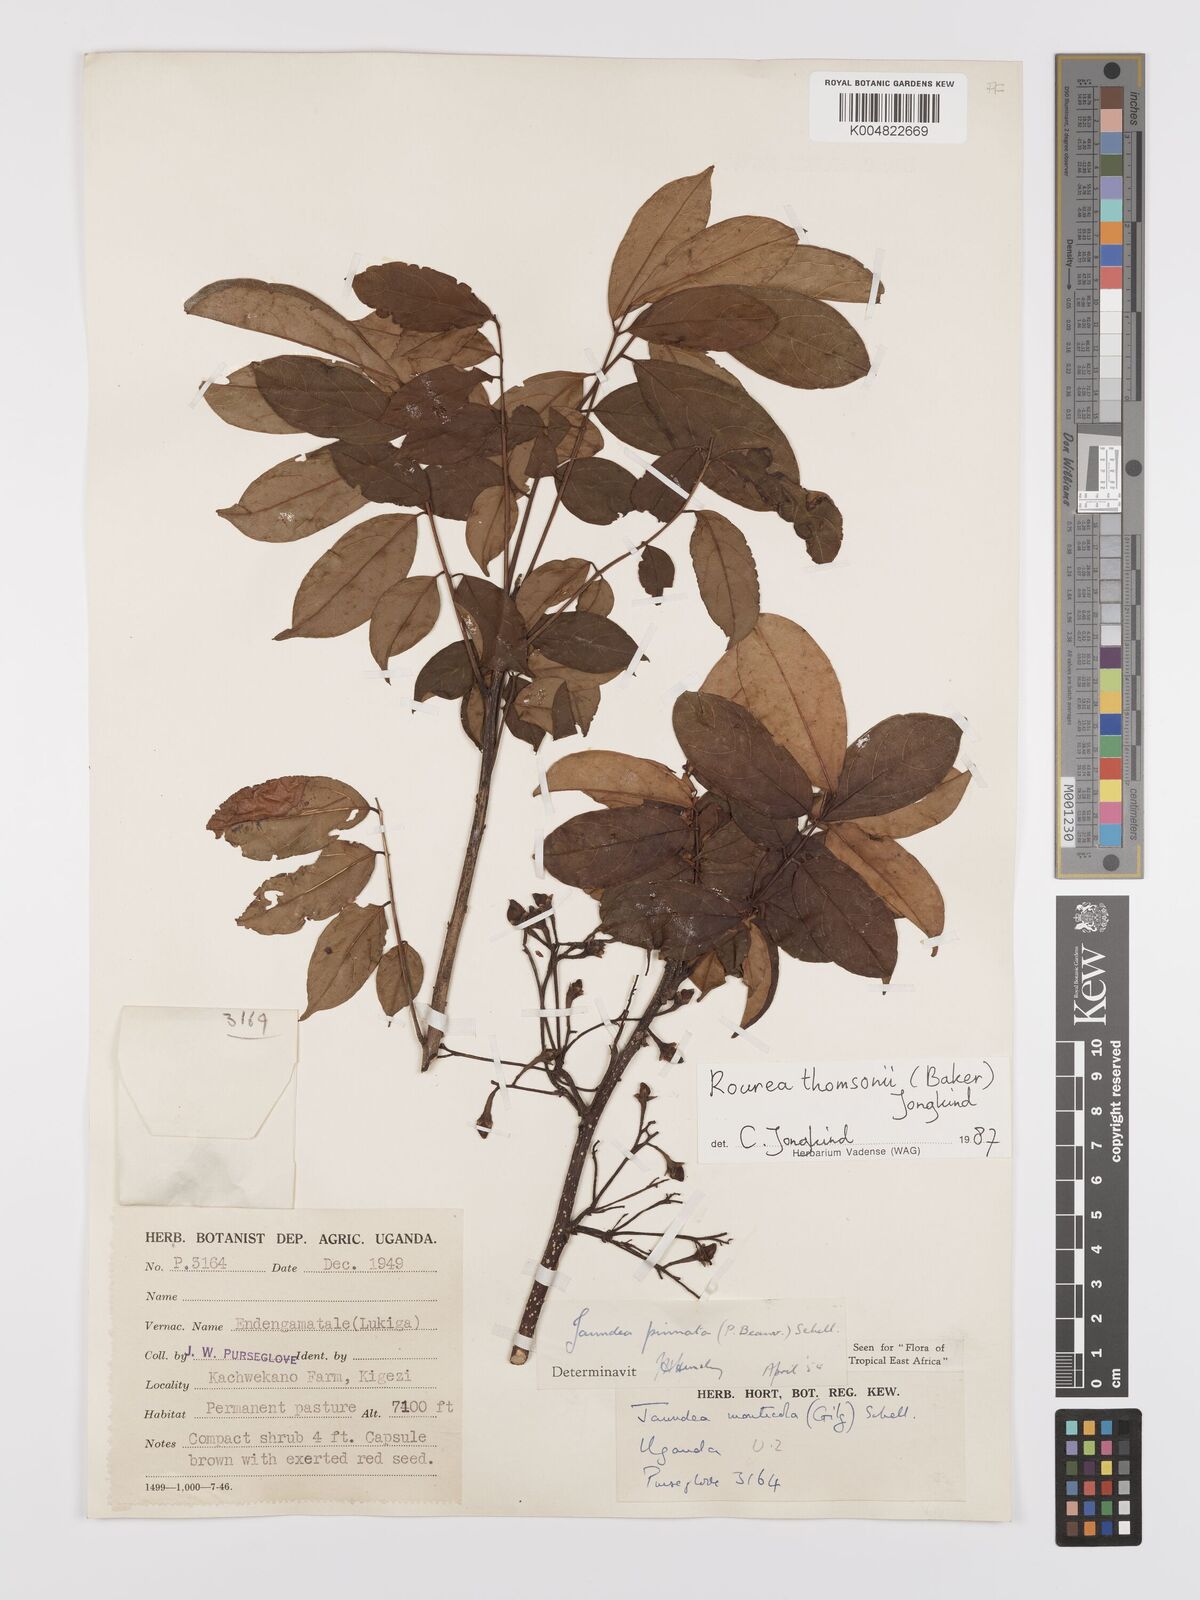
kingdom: Plantae
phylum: Tracheophyta
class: Magnoliopsida
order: Oxalidales
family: Connaraceae
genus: Rourea
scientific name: Rourea pinnata
